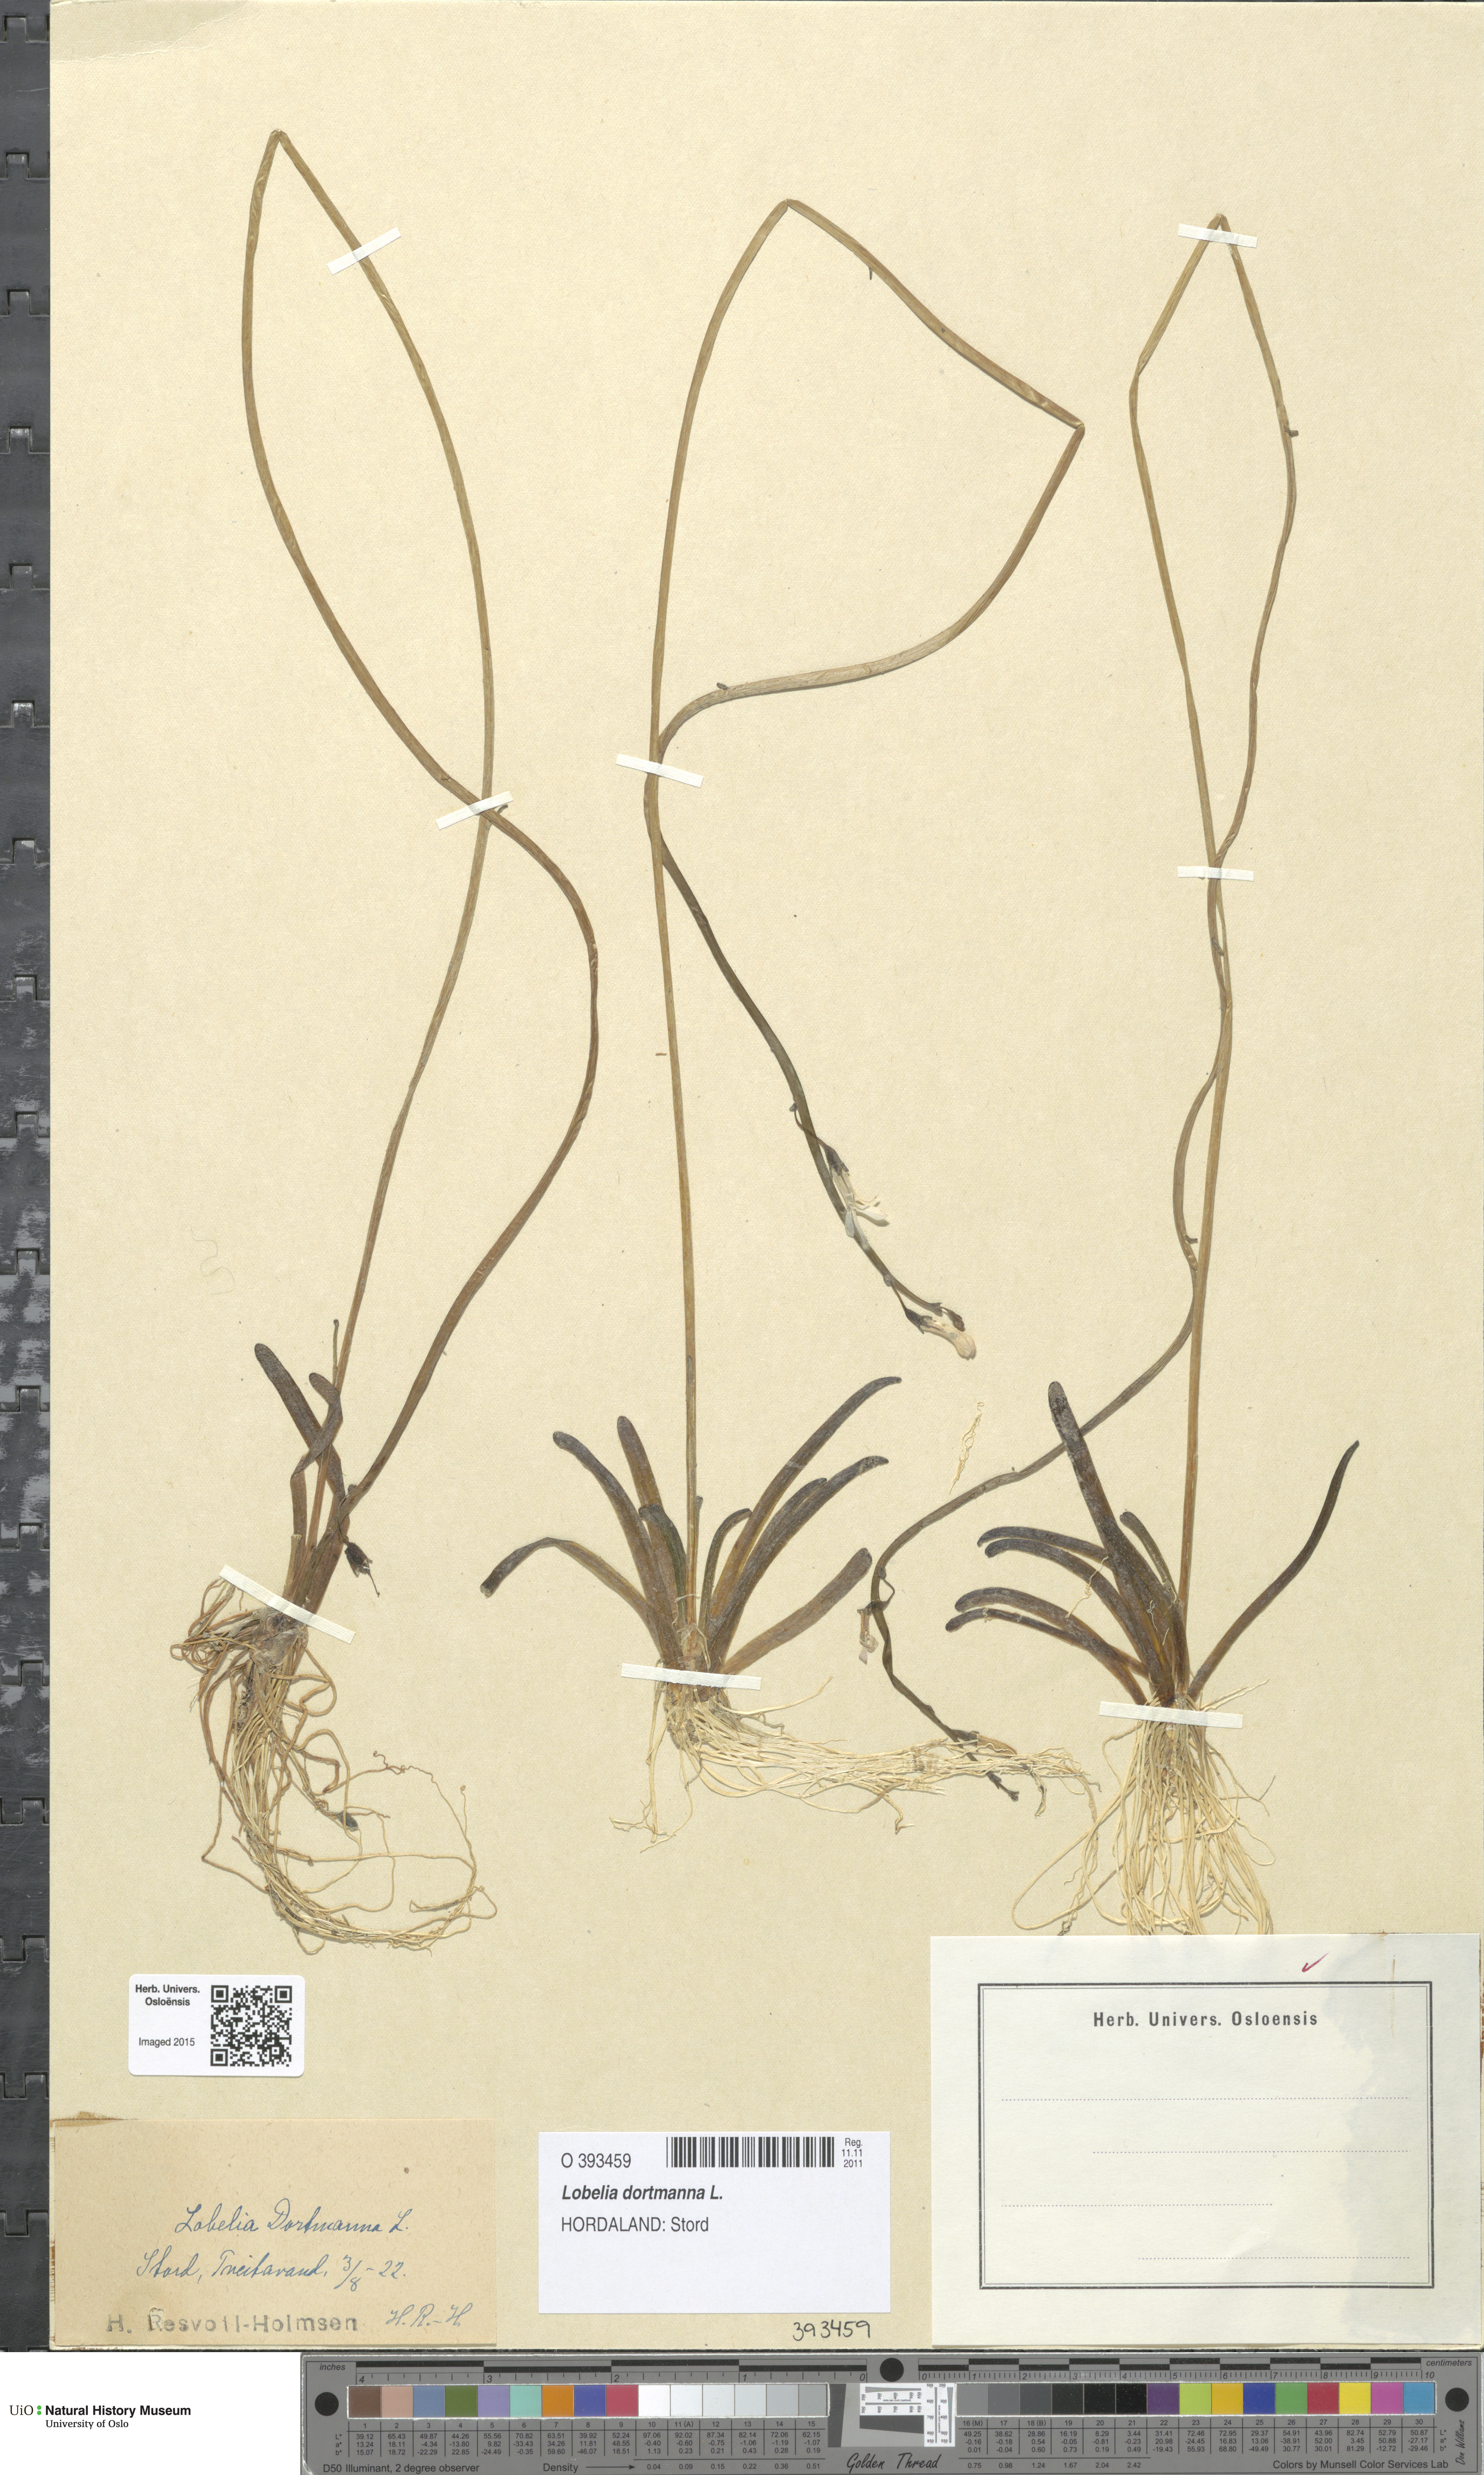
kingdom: Plantae
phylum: Tracheophyta
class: Magnoliopsida
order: Asterales
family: Campanulaceae
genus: Lobelia
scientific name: Lobelia dortmanna
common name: Water lobelia
